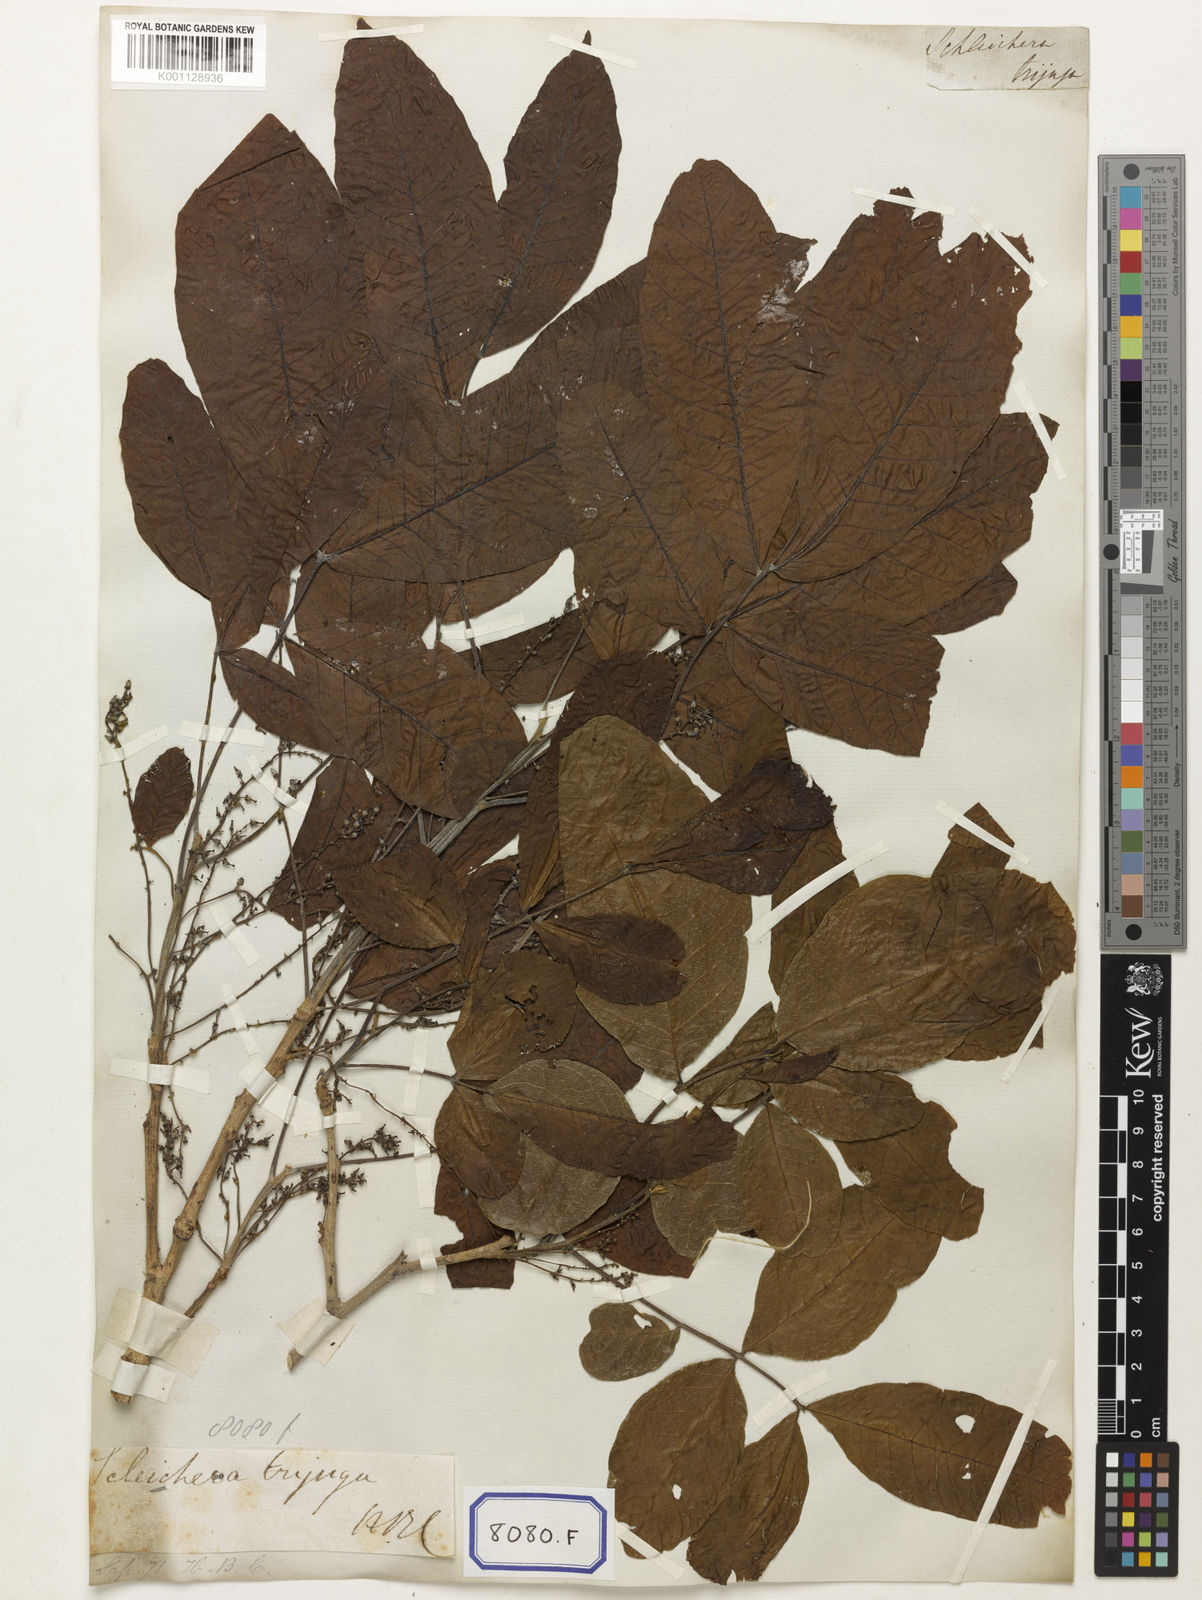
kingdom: Plantae
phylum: Tracheophyta
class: Magnoliopsida
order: Sapindales
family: Sapindaceae
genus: Schleichera
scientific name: Schleichera oleosa
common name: Malay lactree
